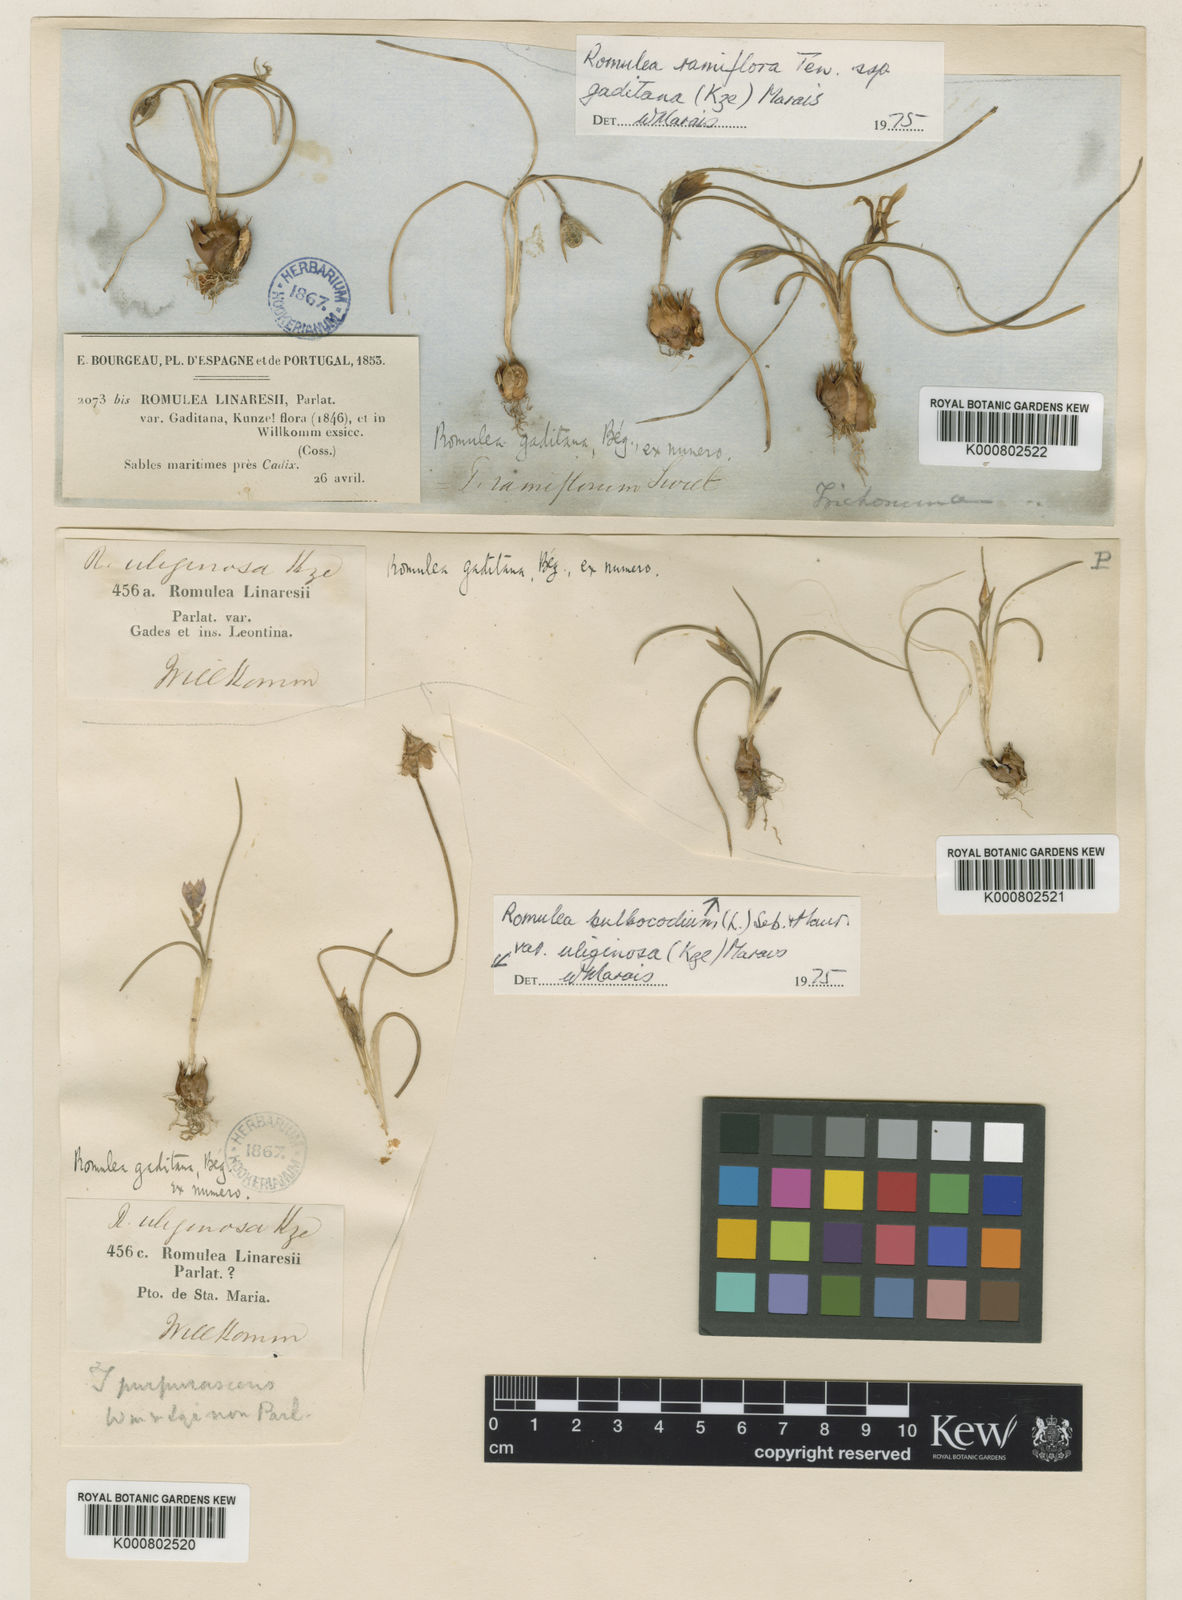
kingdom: Plantae
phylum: Tracheophyta
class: Liliopsida
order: Asparagales
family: Iridaceae
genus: Romulea
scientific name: Romulea ramiflora
